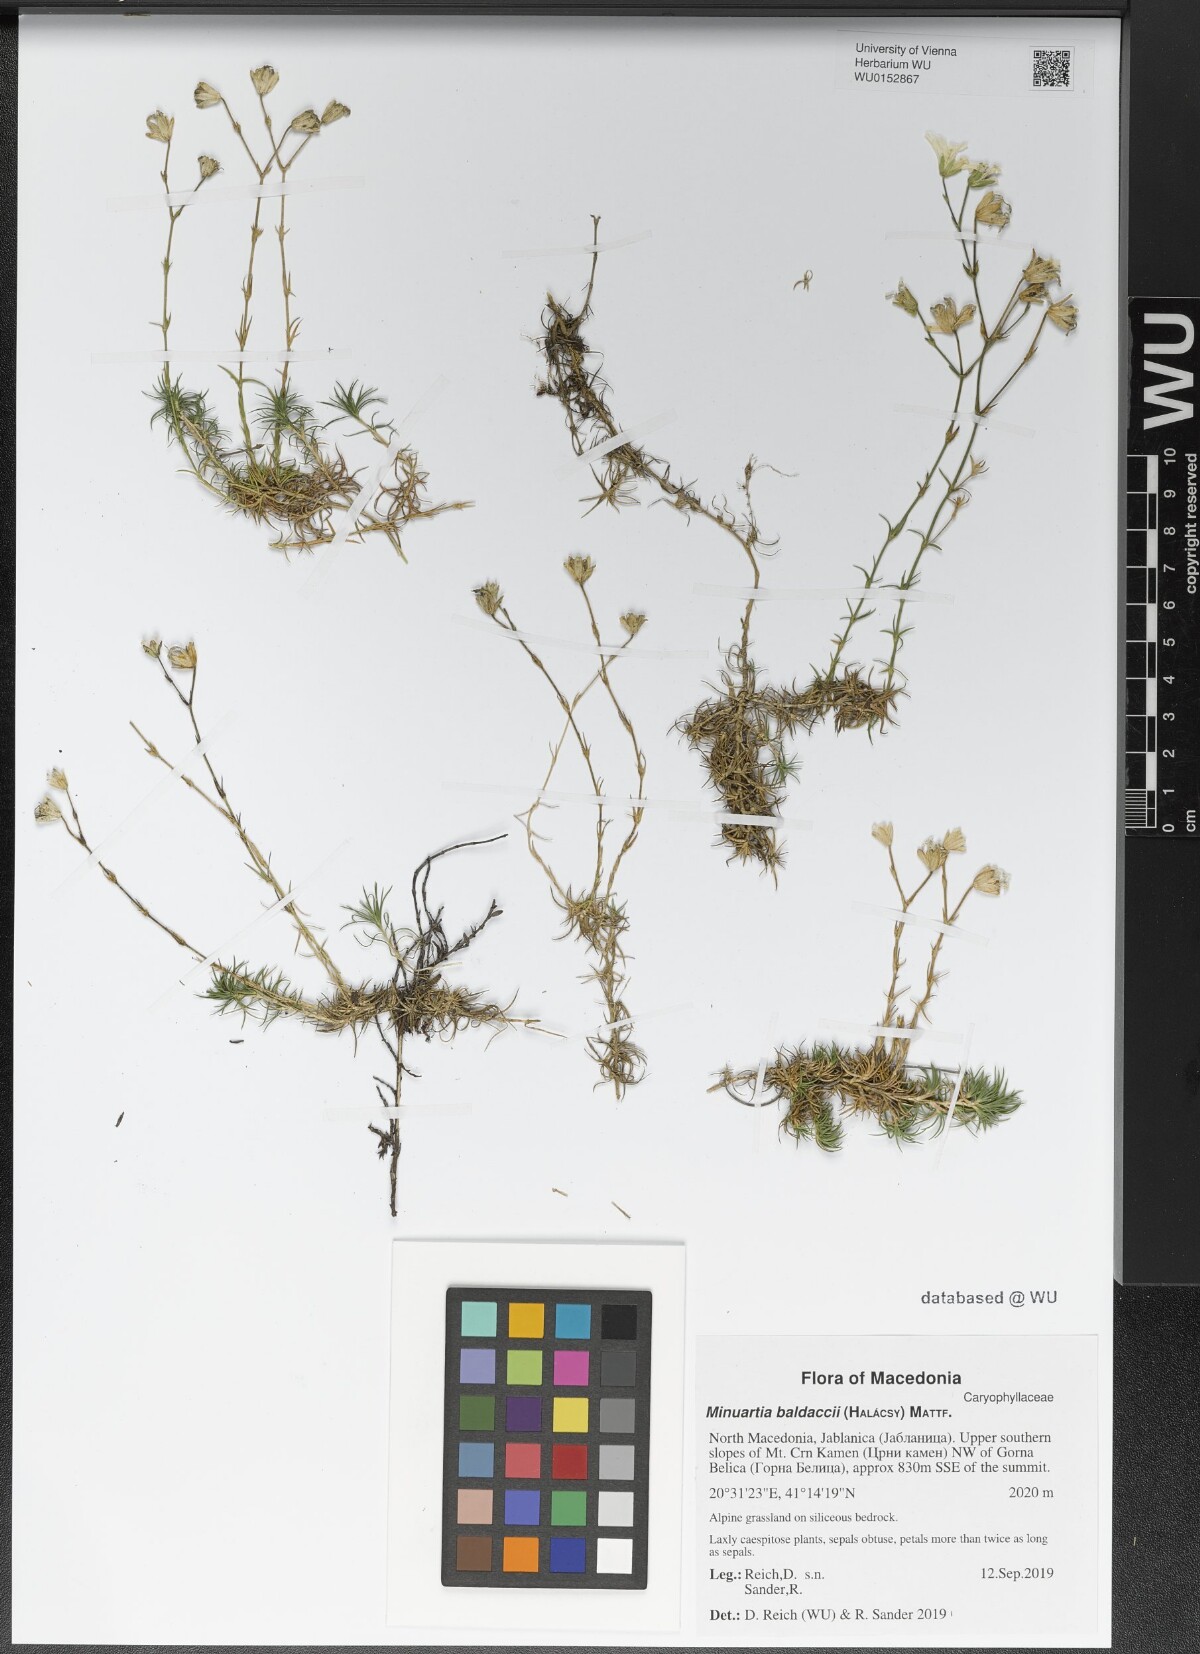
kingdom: Plantae
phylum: Tracheophyta
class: Magnoliopsida
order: Caryophyllales
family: Caryophyllaceae
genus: Cherleria
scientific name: Cherleria baldaccii
